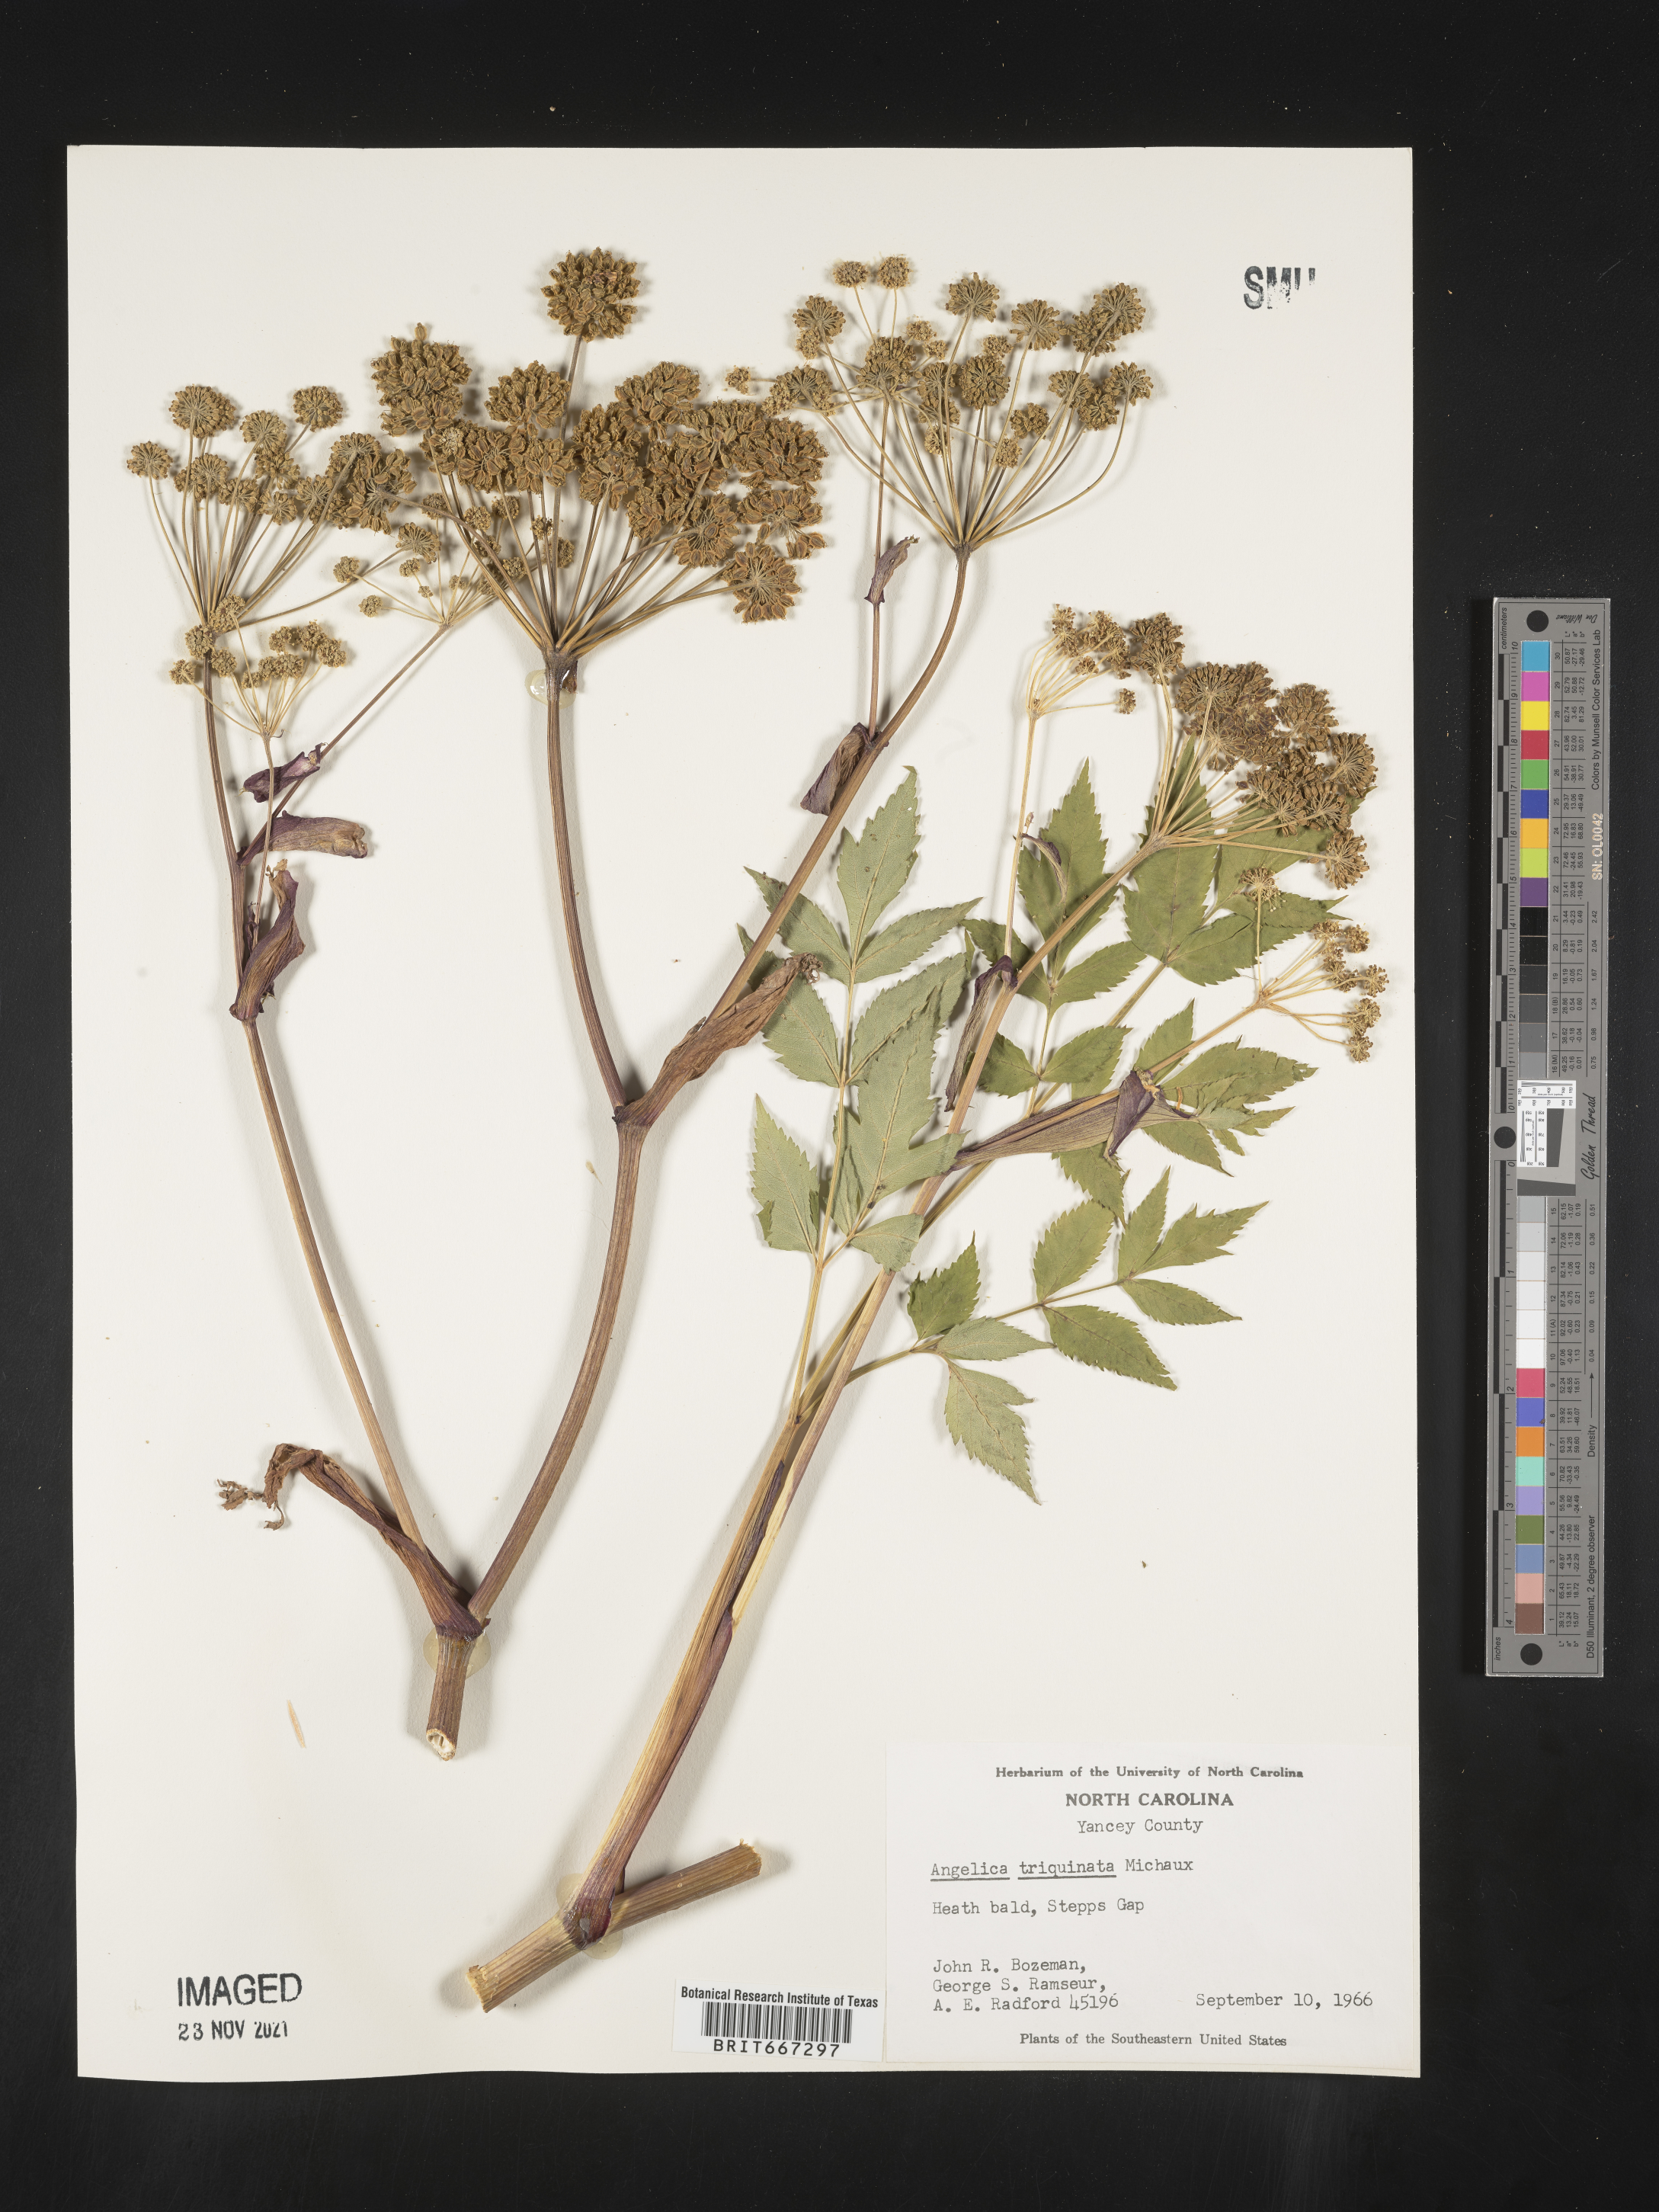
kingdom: Plantae
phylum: Tracheophyta
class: Magnoliopsida
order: Apiales
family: Apiaceae
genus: Angelica
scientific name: Angelica triquinata
